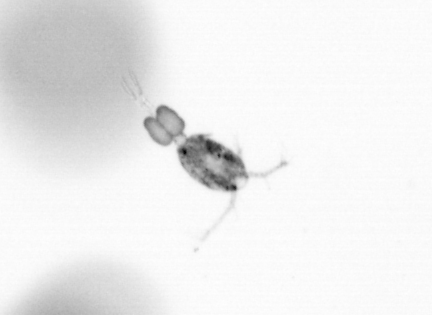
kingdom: Animalia
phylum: Arthropoda
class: Copepoda
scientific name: Copepoda
